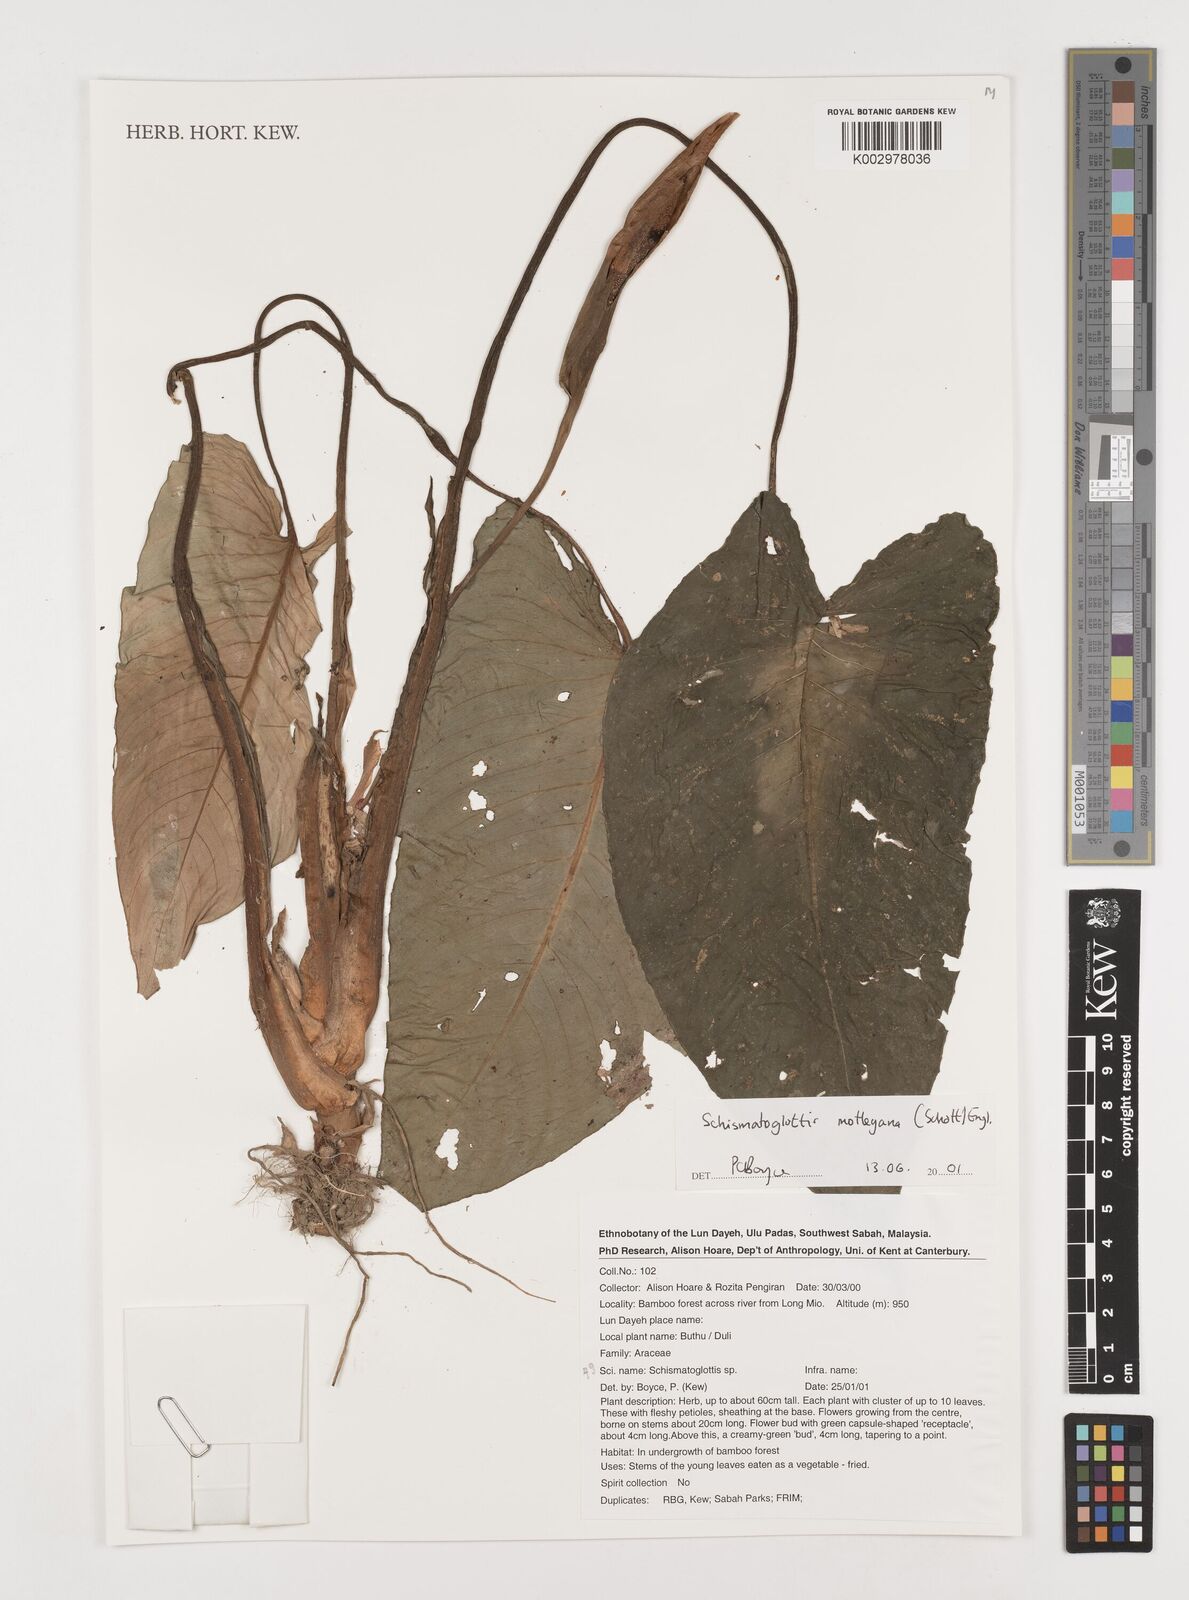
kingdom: Plantae
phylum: Tracheophyta
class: Liliopsida
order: Alismatales
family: Araceae
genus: Schismatoglottis
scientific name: Schismatoglottis motleyana
